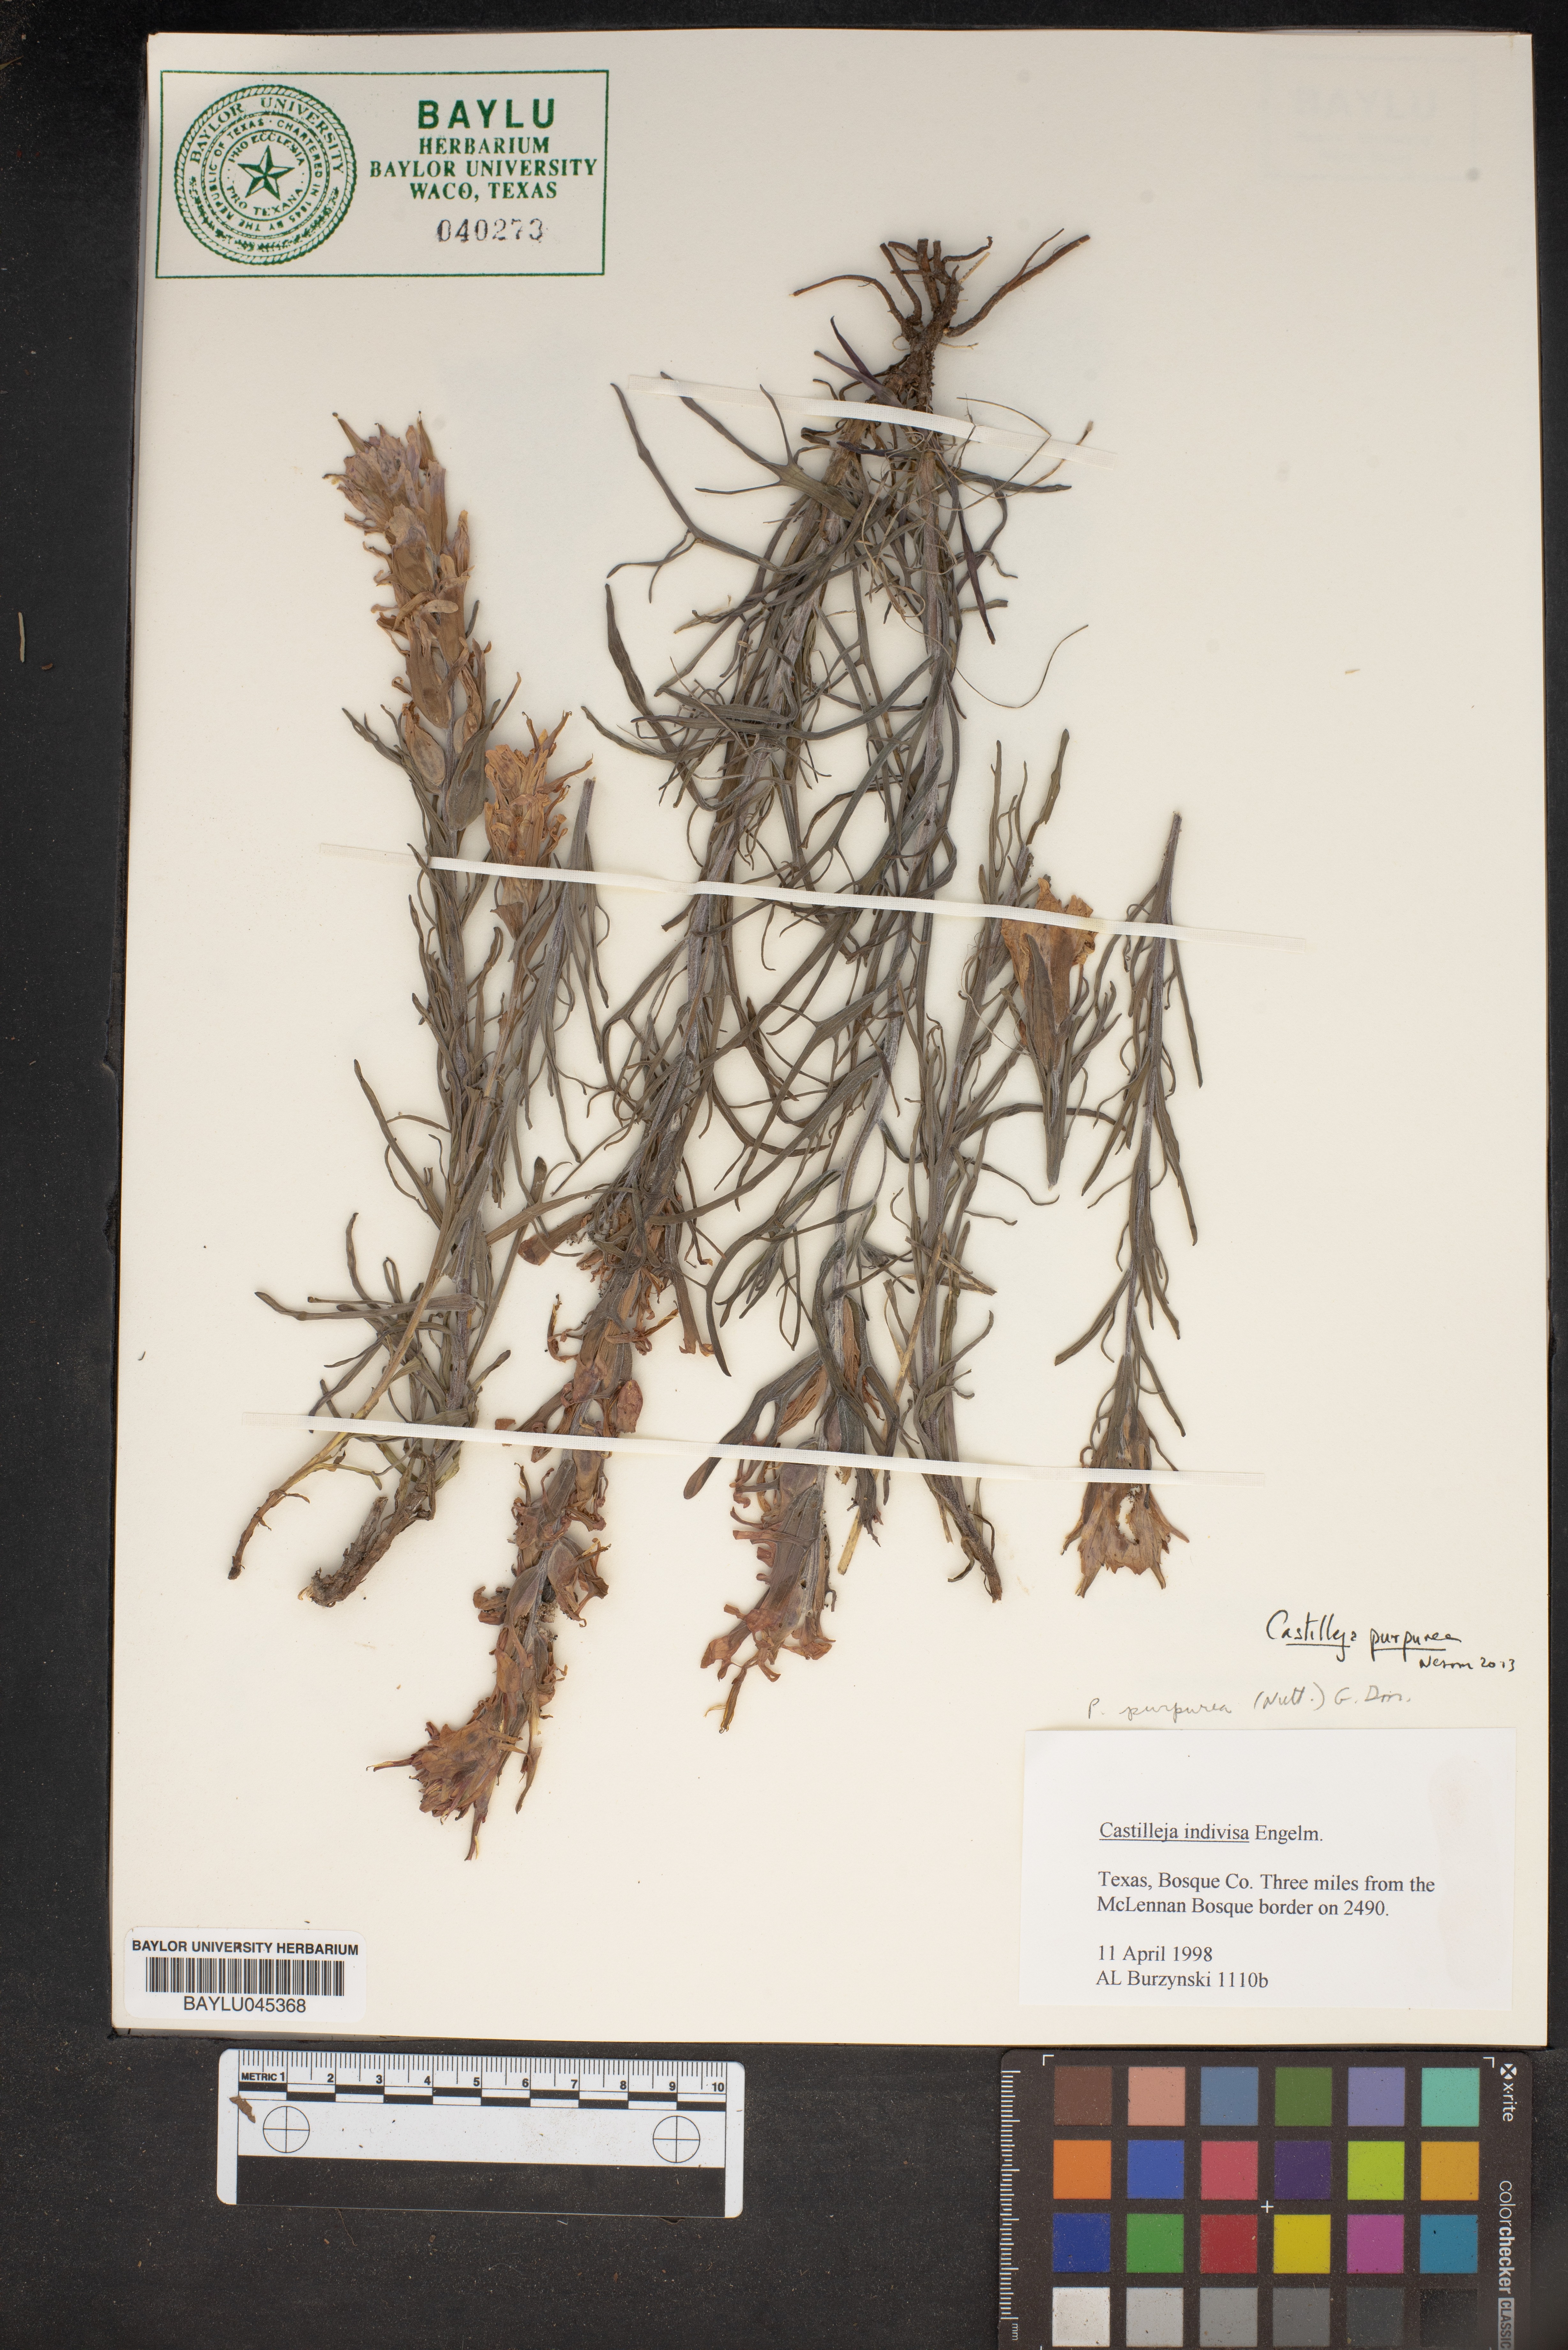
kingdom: Plantae
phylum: Tracheophyta
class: Magnoliopsida
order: Lamiales
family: Orobanchaceae
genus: Castilleja
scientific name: Castilleja purpurea
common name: Plains paintbrush
